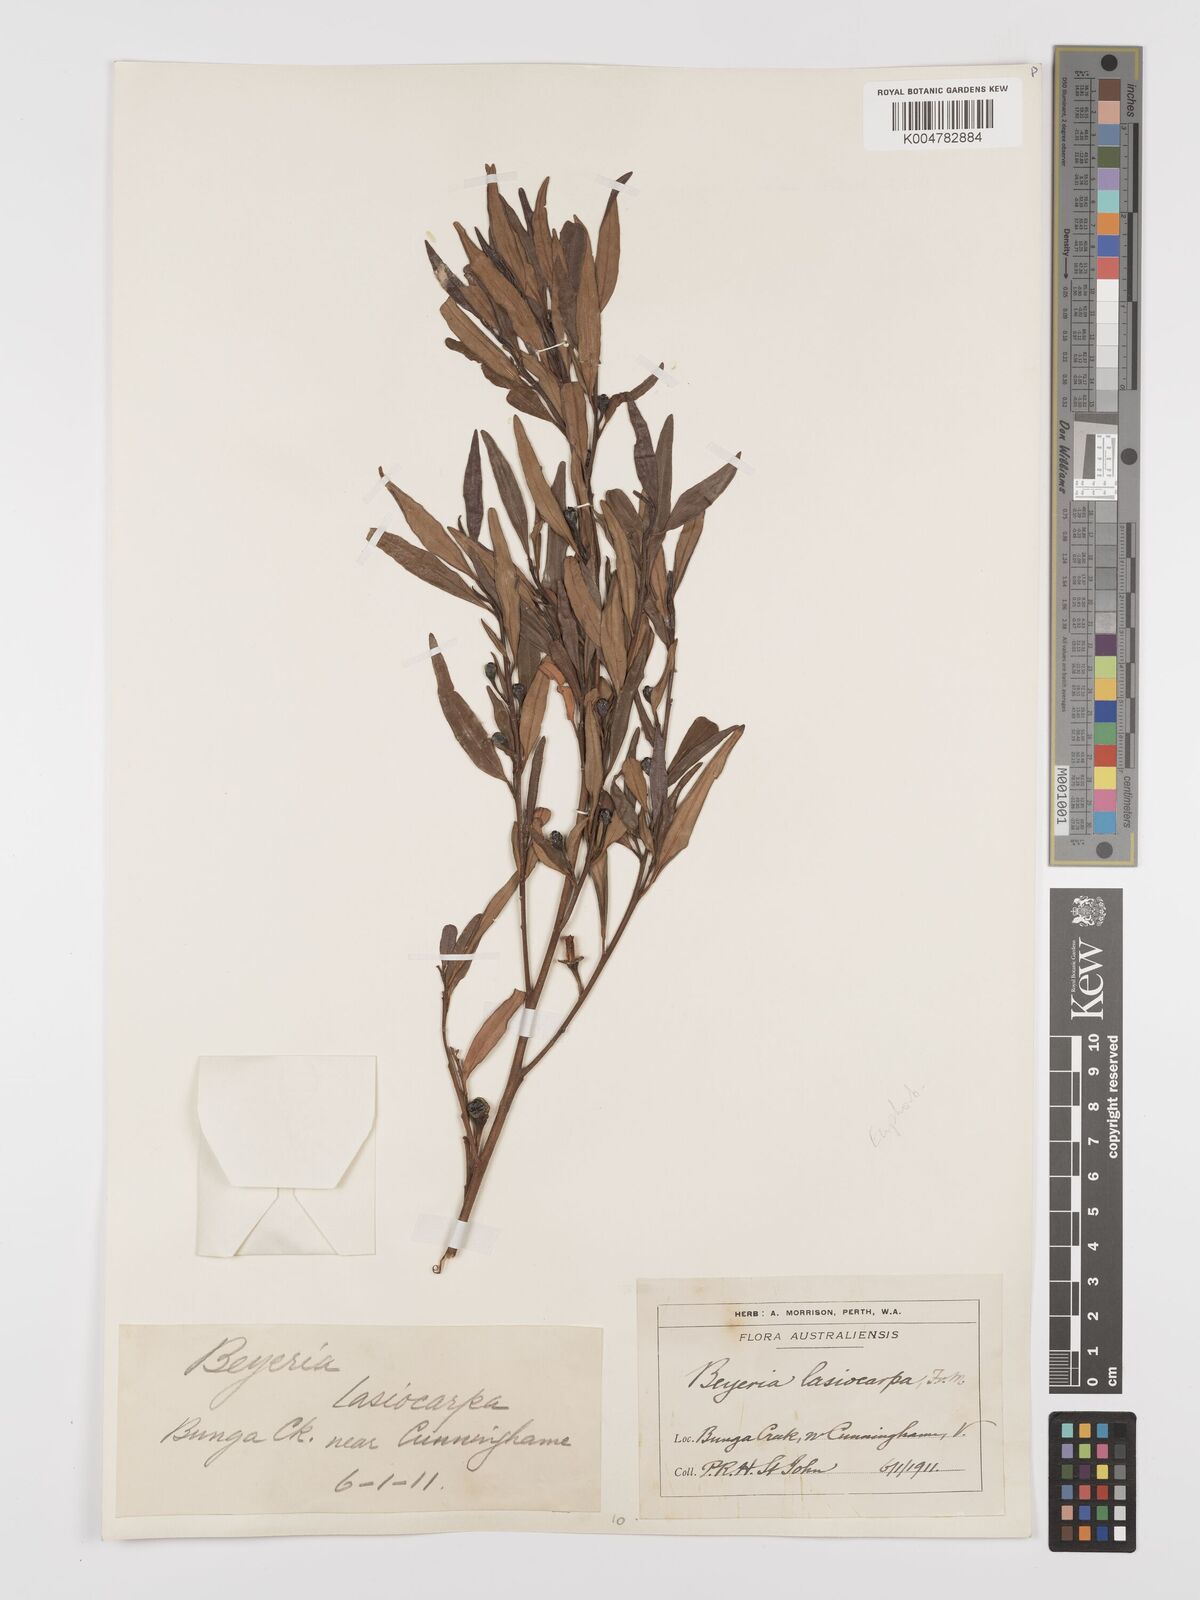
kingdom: Plantae
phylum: Tracheophyta
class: Magnoliopsida
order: Malpighiales
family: Euphorbiaceae
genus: Beyeria
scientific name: Beyeria lasiocarpa
